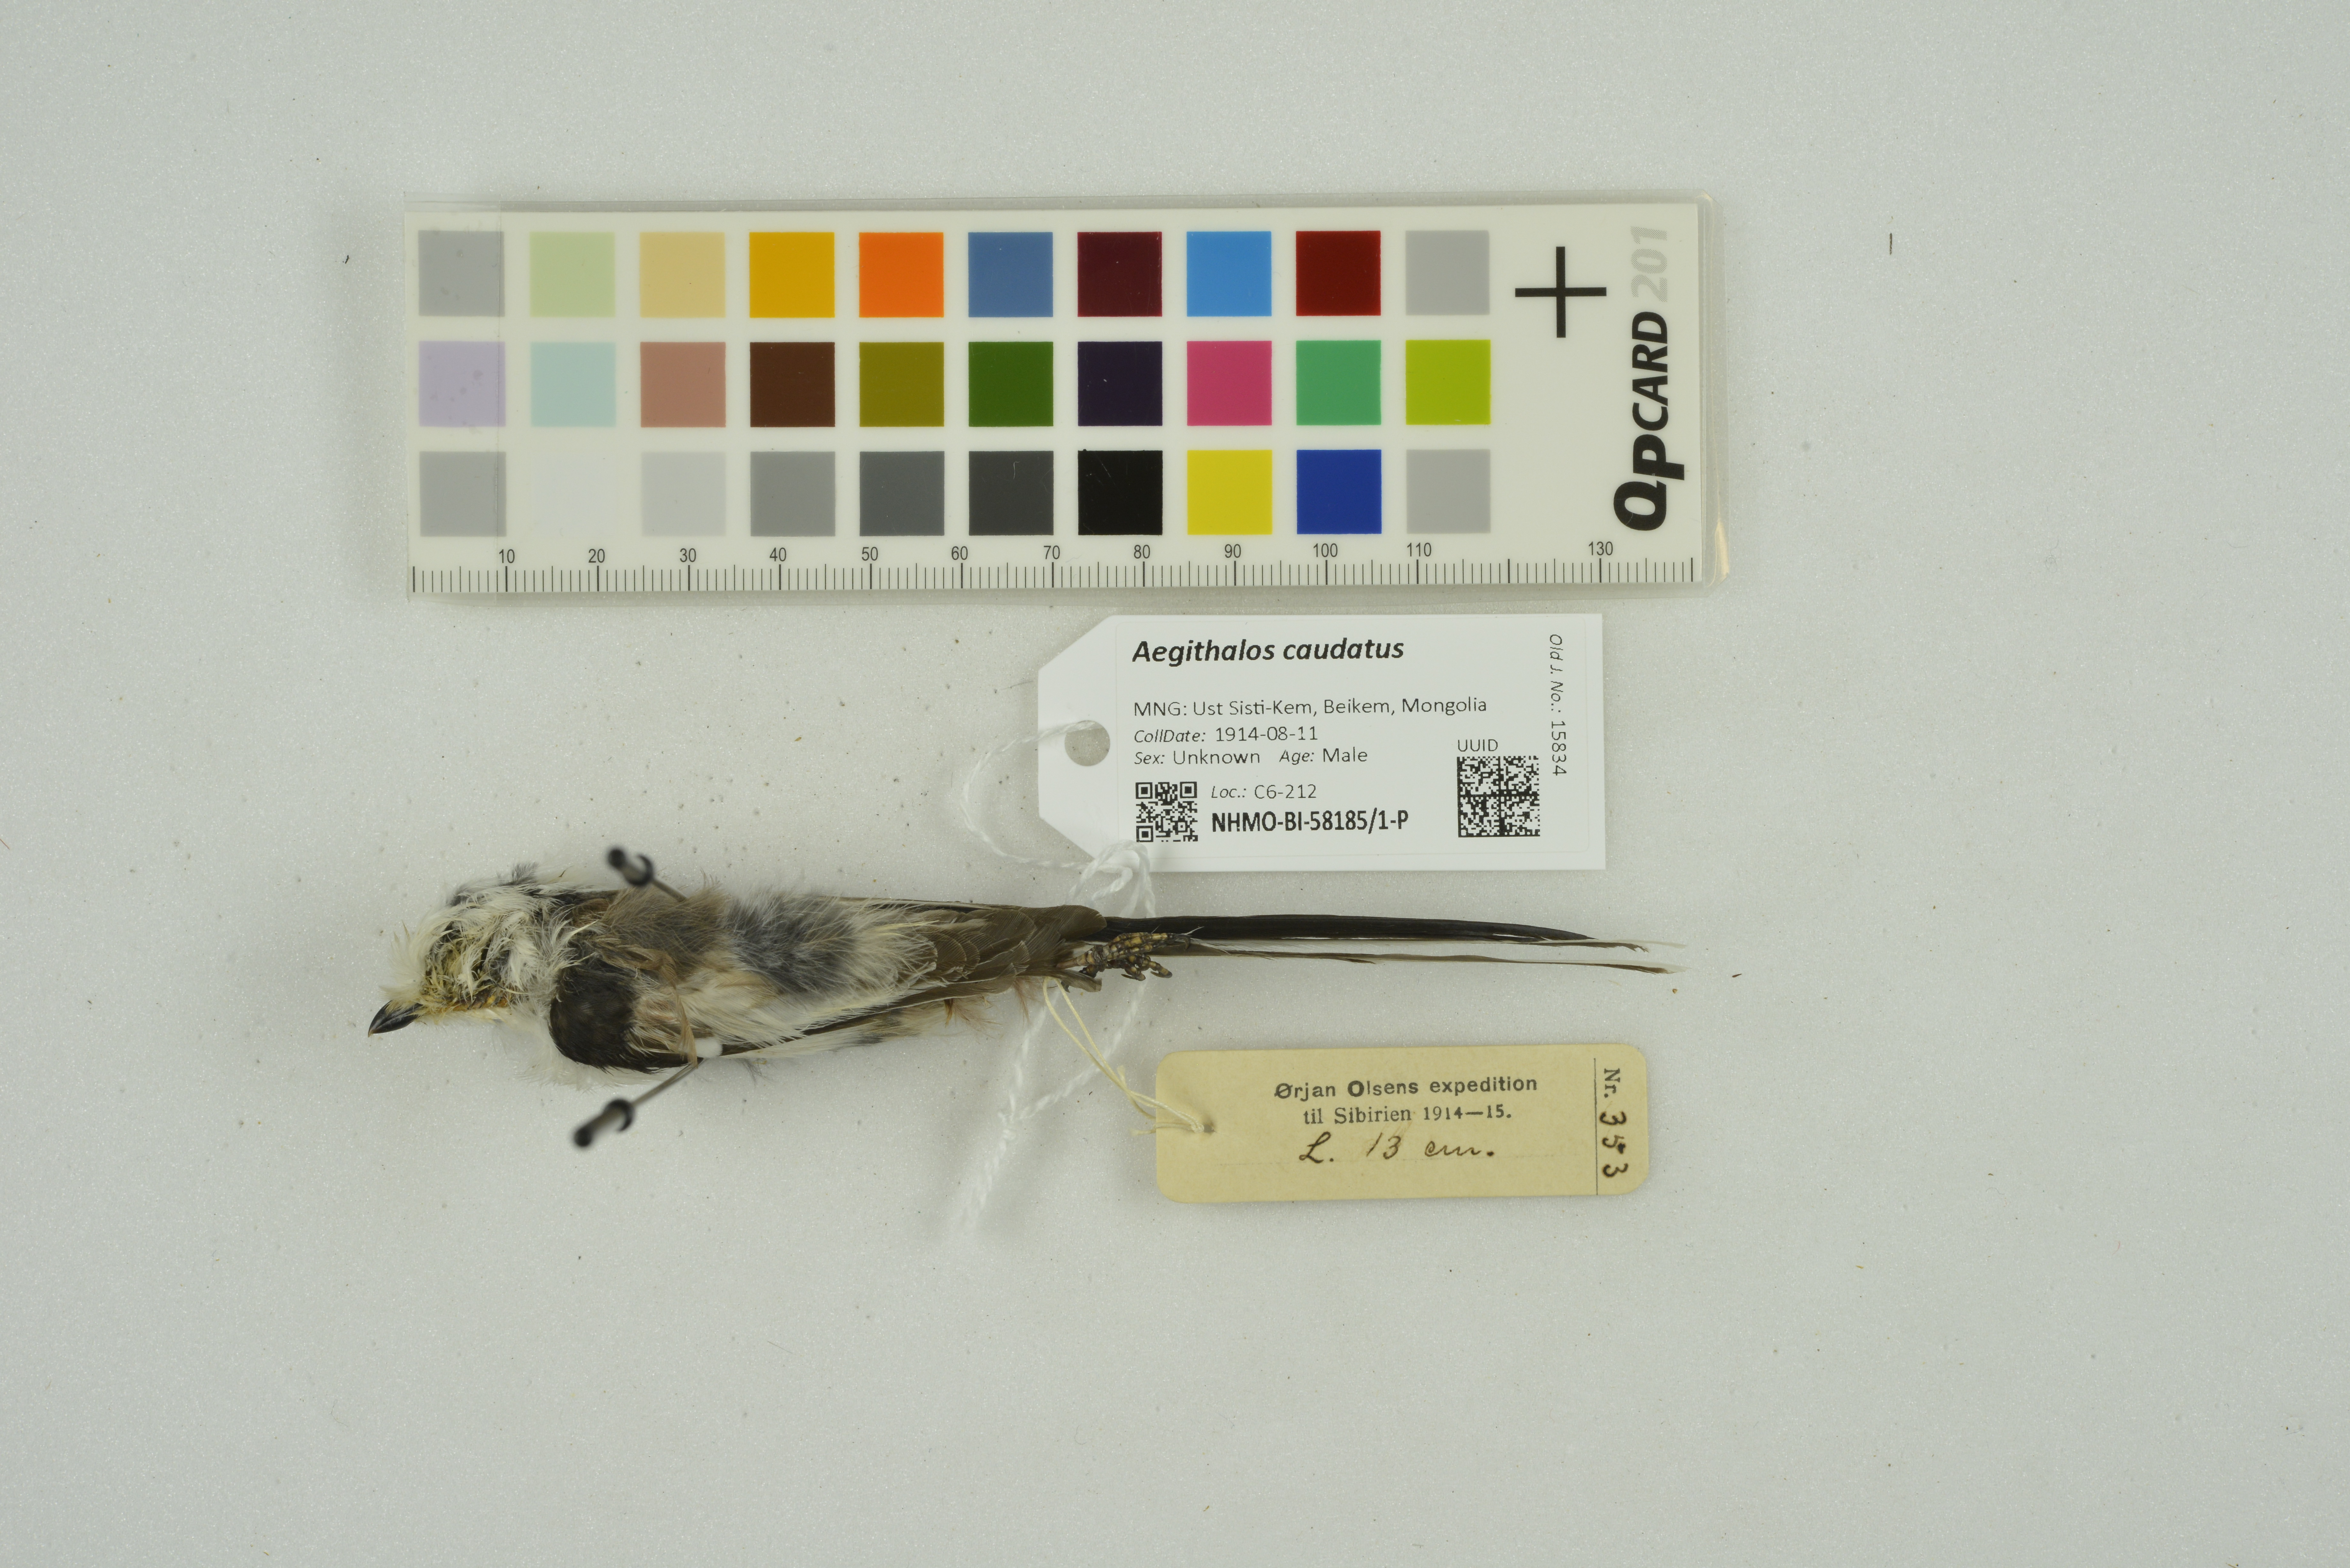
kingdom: Animalia
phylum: Chordata
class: Aves
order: Passeriformes
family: Aegithalidae
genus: Aegithalos
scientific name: Aegithalos caudatus
